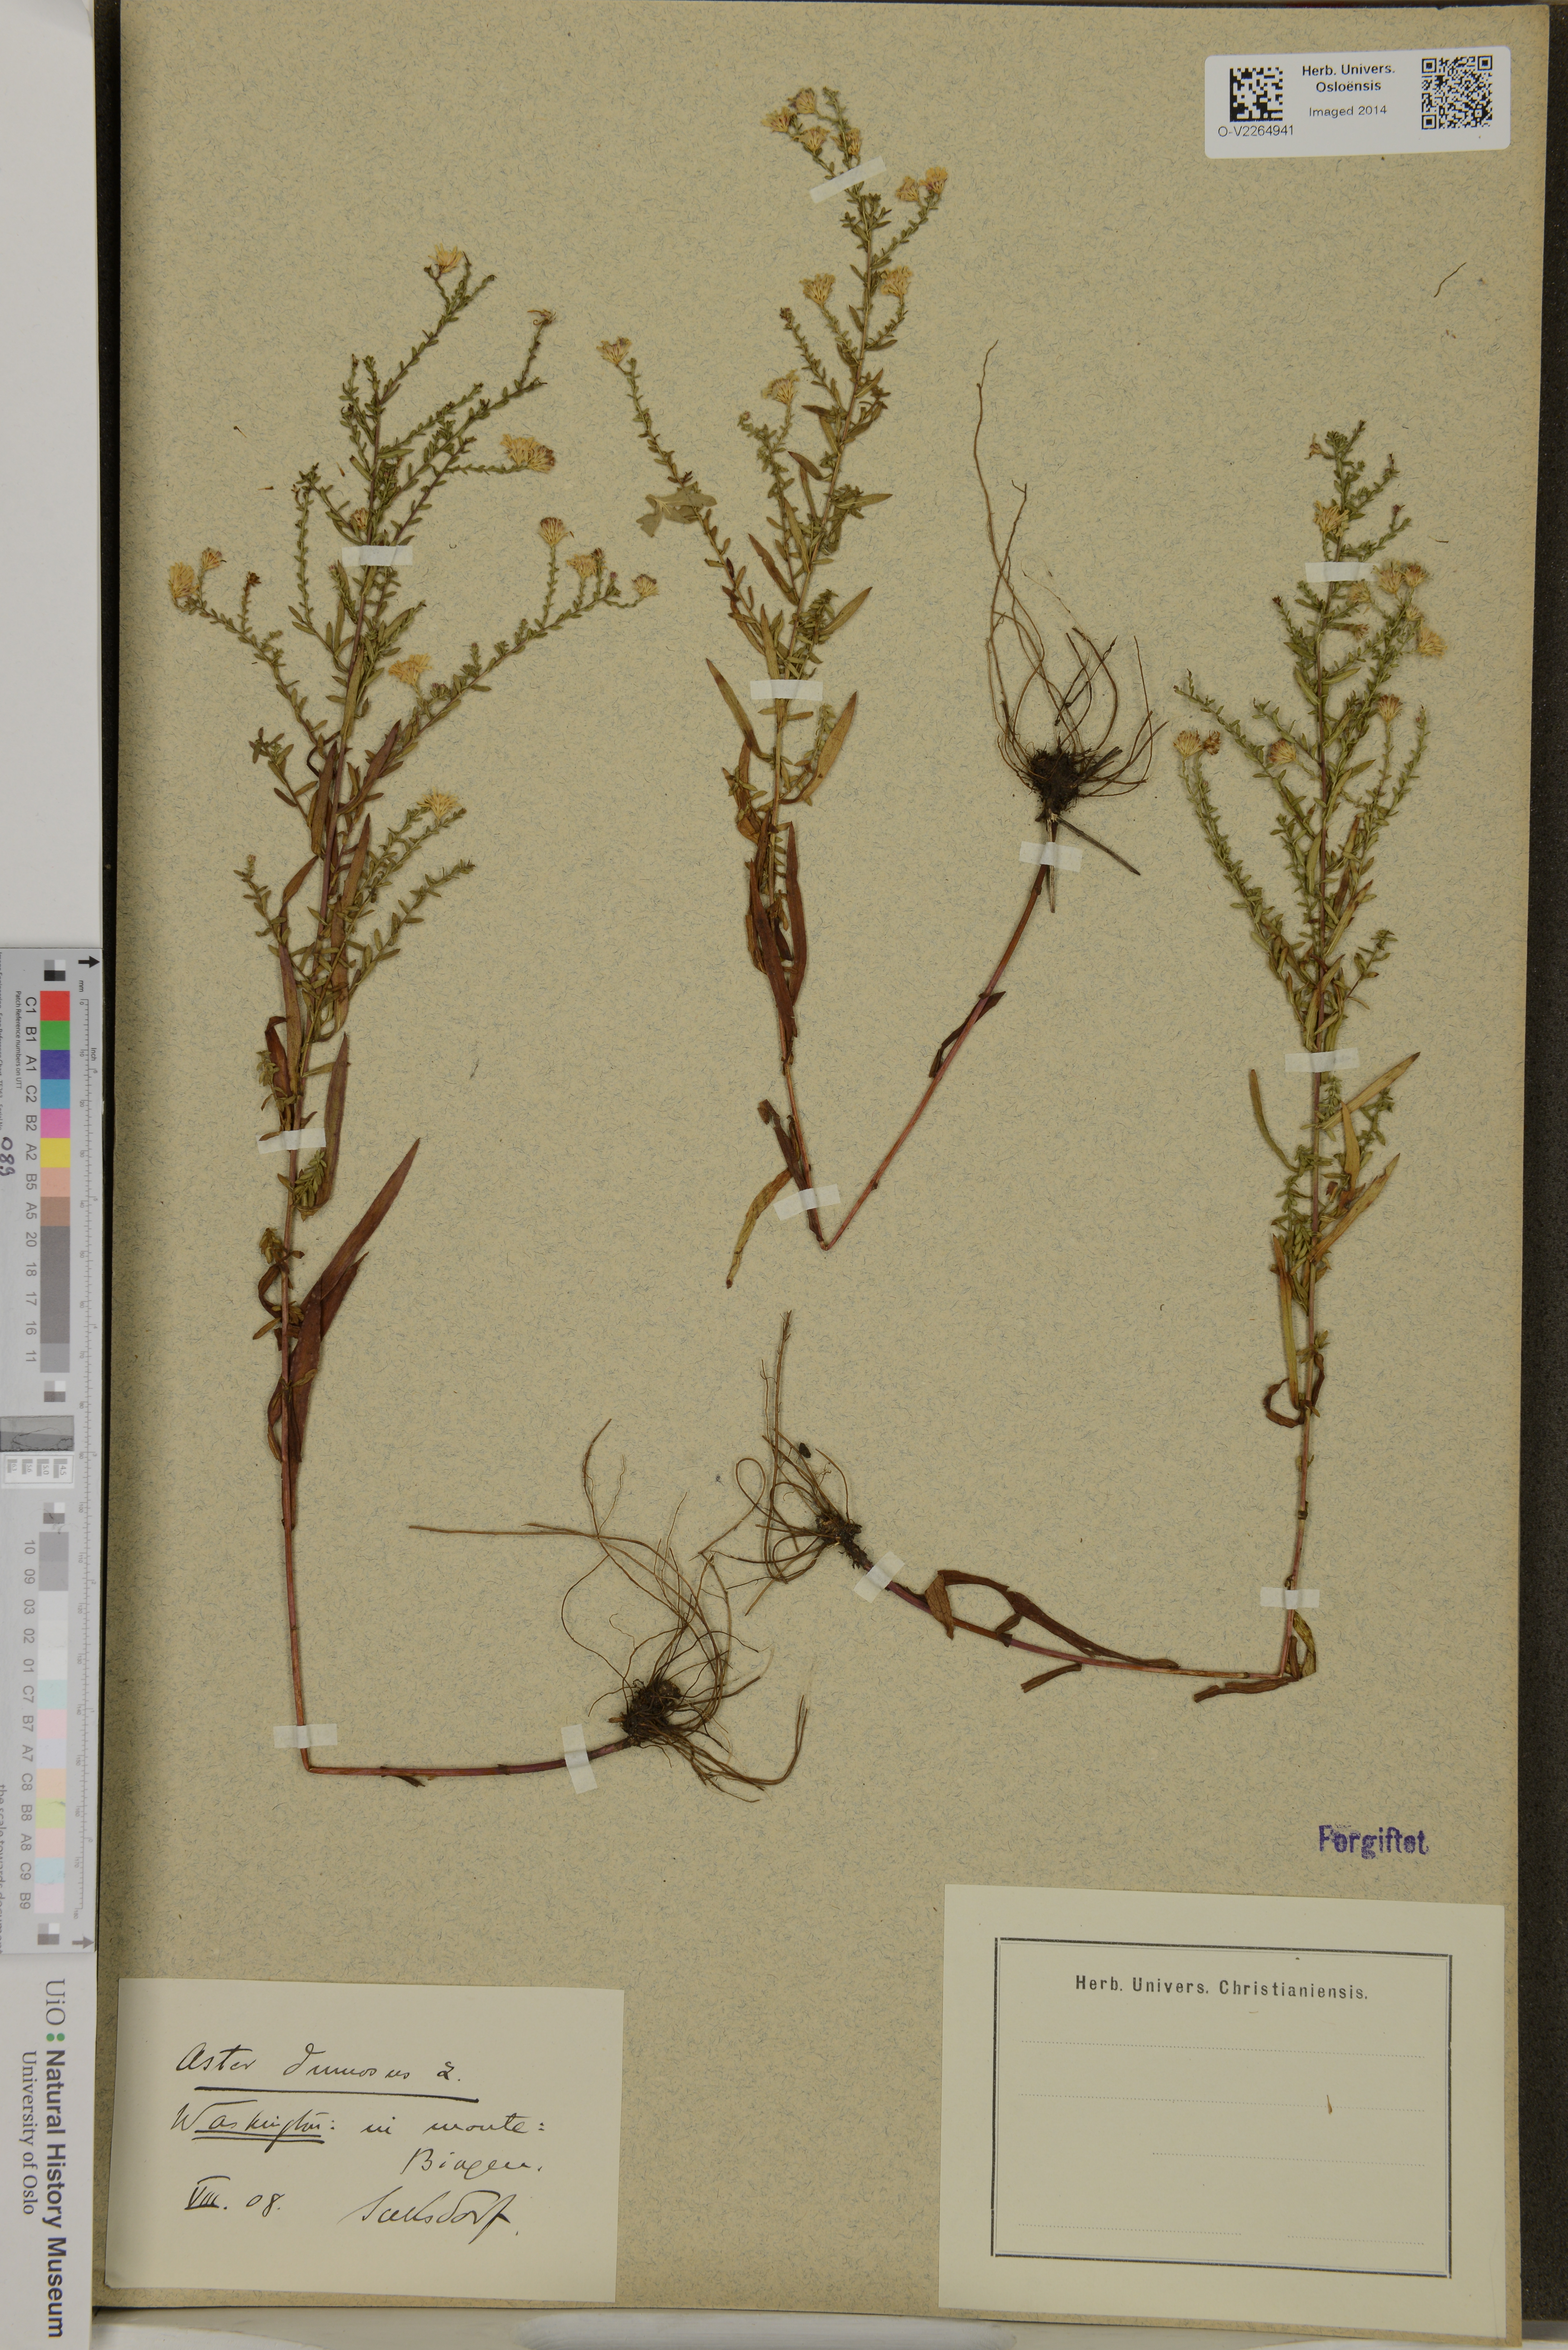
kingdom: Plantae
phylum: Tracheophyta
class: Magnoliopsida
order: Asterales
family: Asteraceae
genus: Aster
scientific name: Aster dumosus
